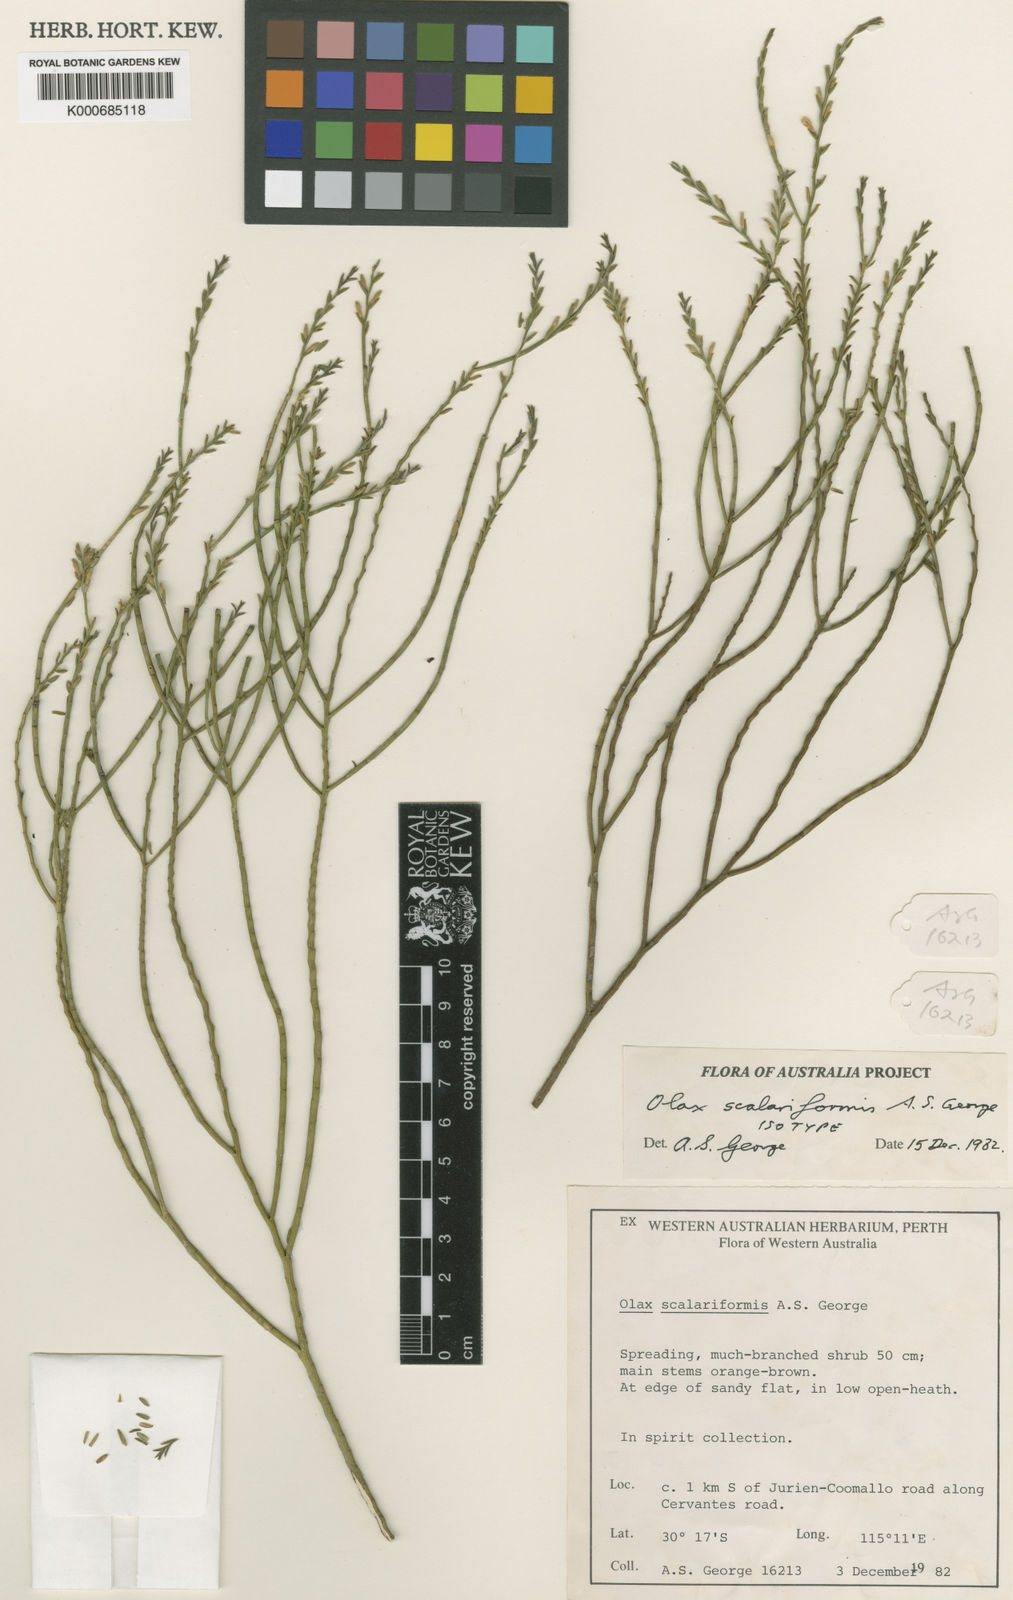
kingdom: Plantae
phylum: Tracheophyta
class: Magnoliopsida
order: Santalales
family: Olacaceae
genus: Olax
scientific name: Olax scalariformis
